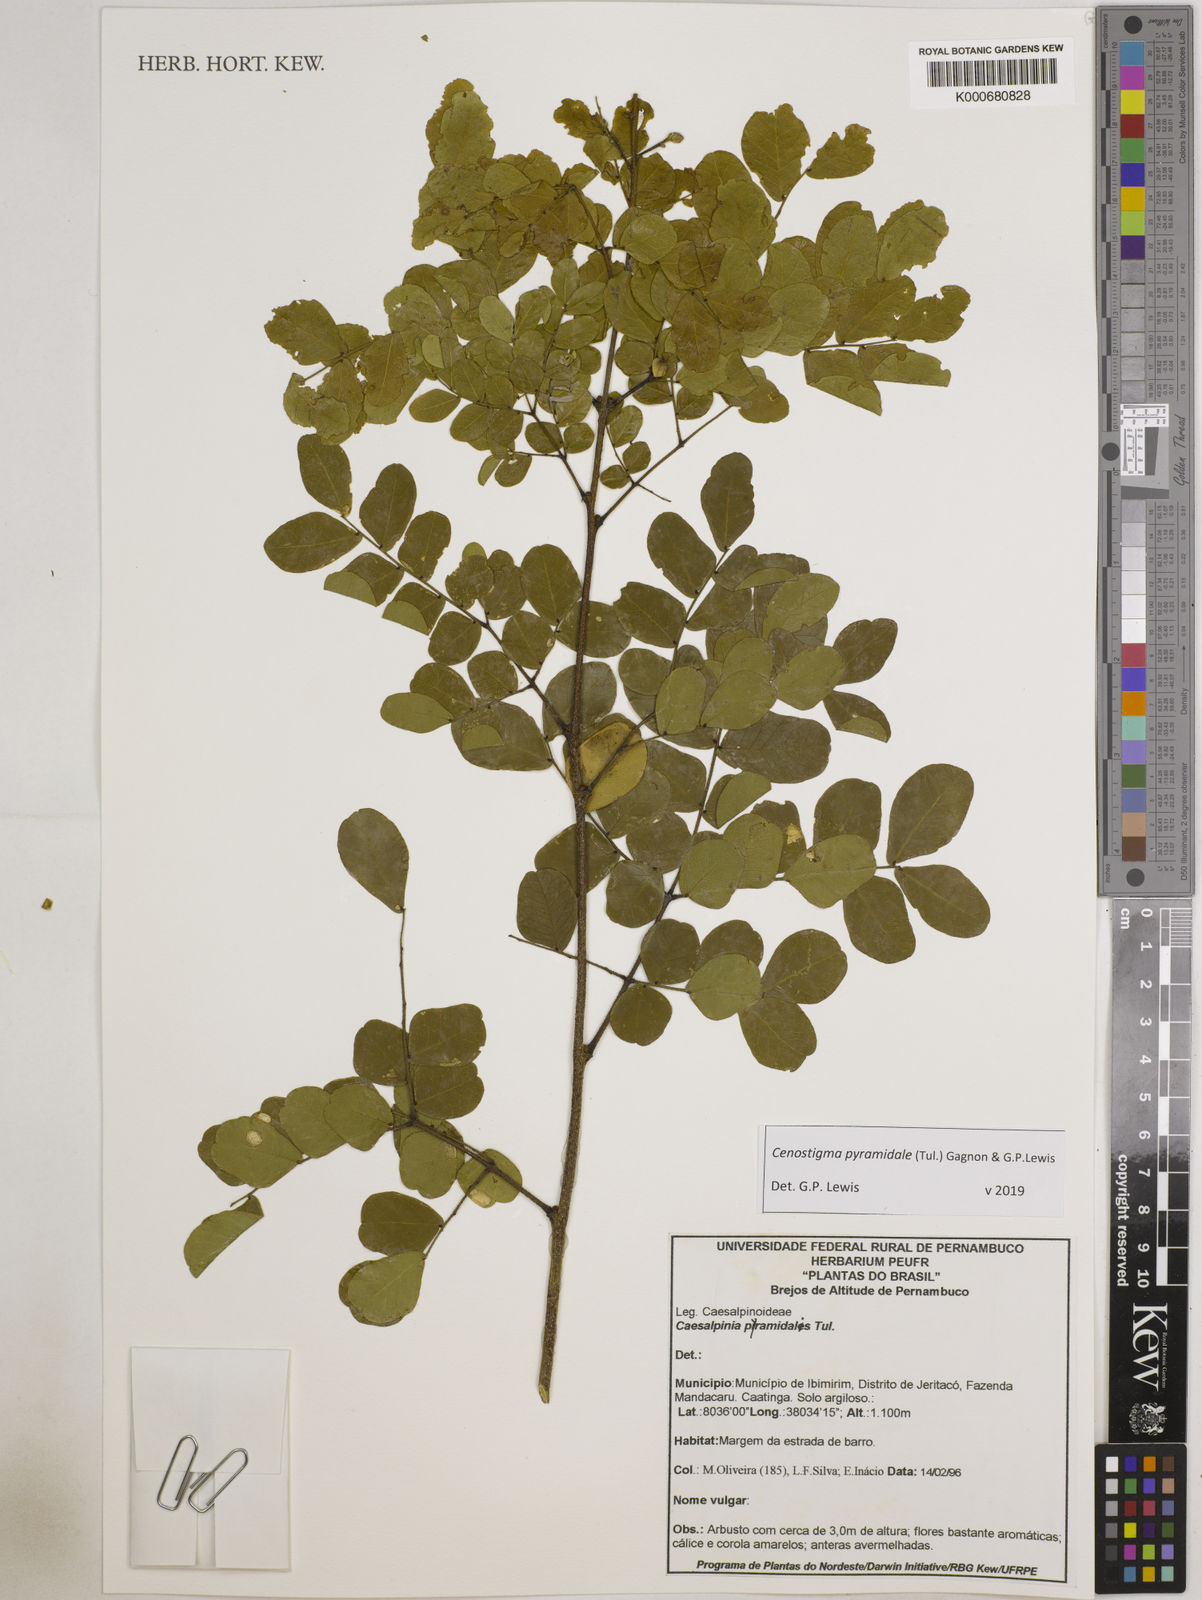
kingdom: Plantae
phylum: Tracheophyta
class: Magnoliopsida
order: Fabales
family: Fabaceae
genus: Caesalpinia
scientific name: Caesalpinia
